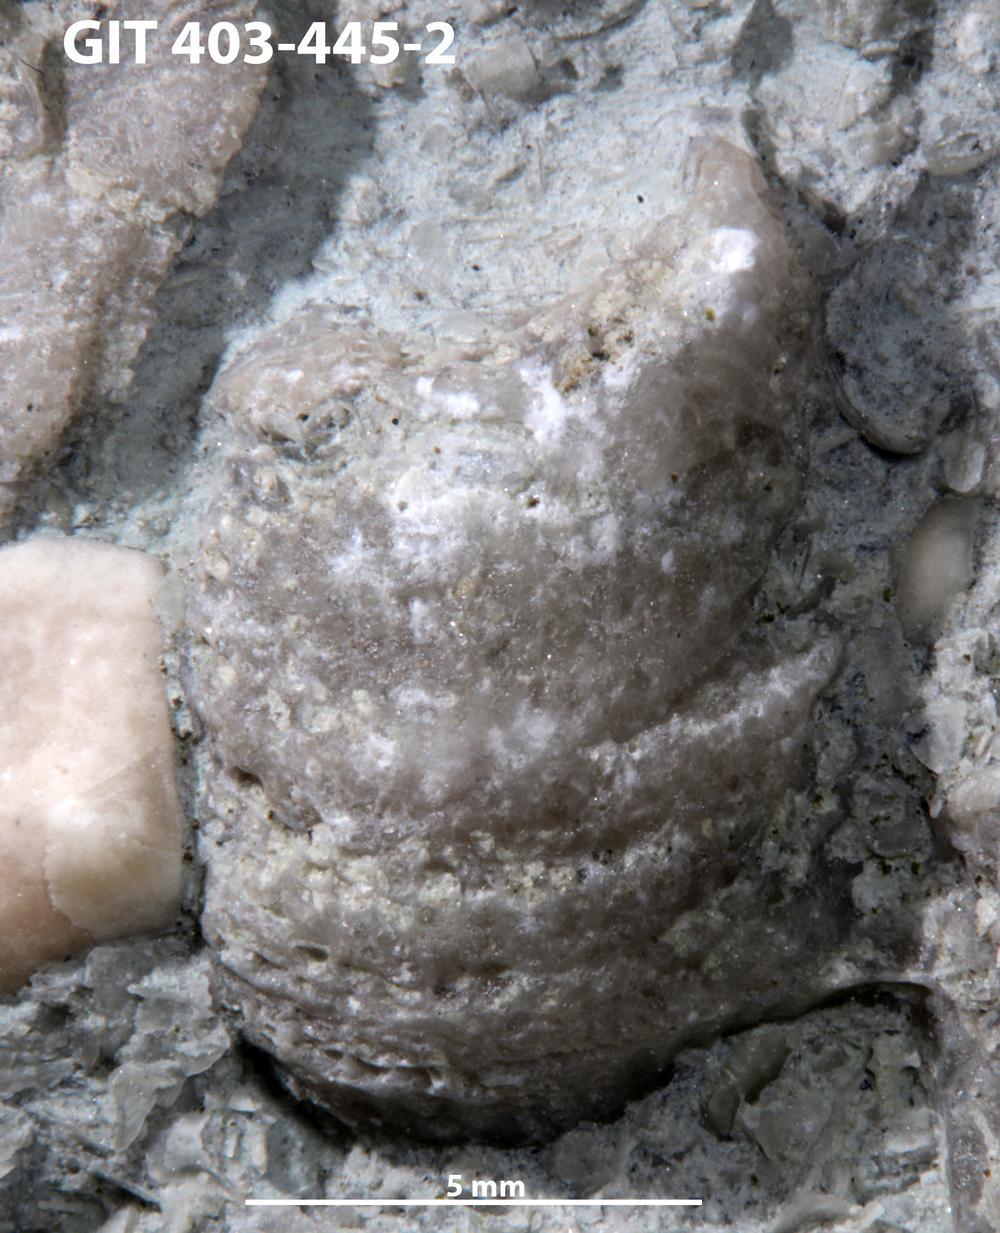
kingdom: Animalia
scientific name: Animalia
